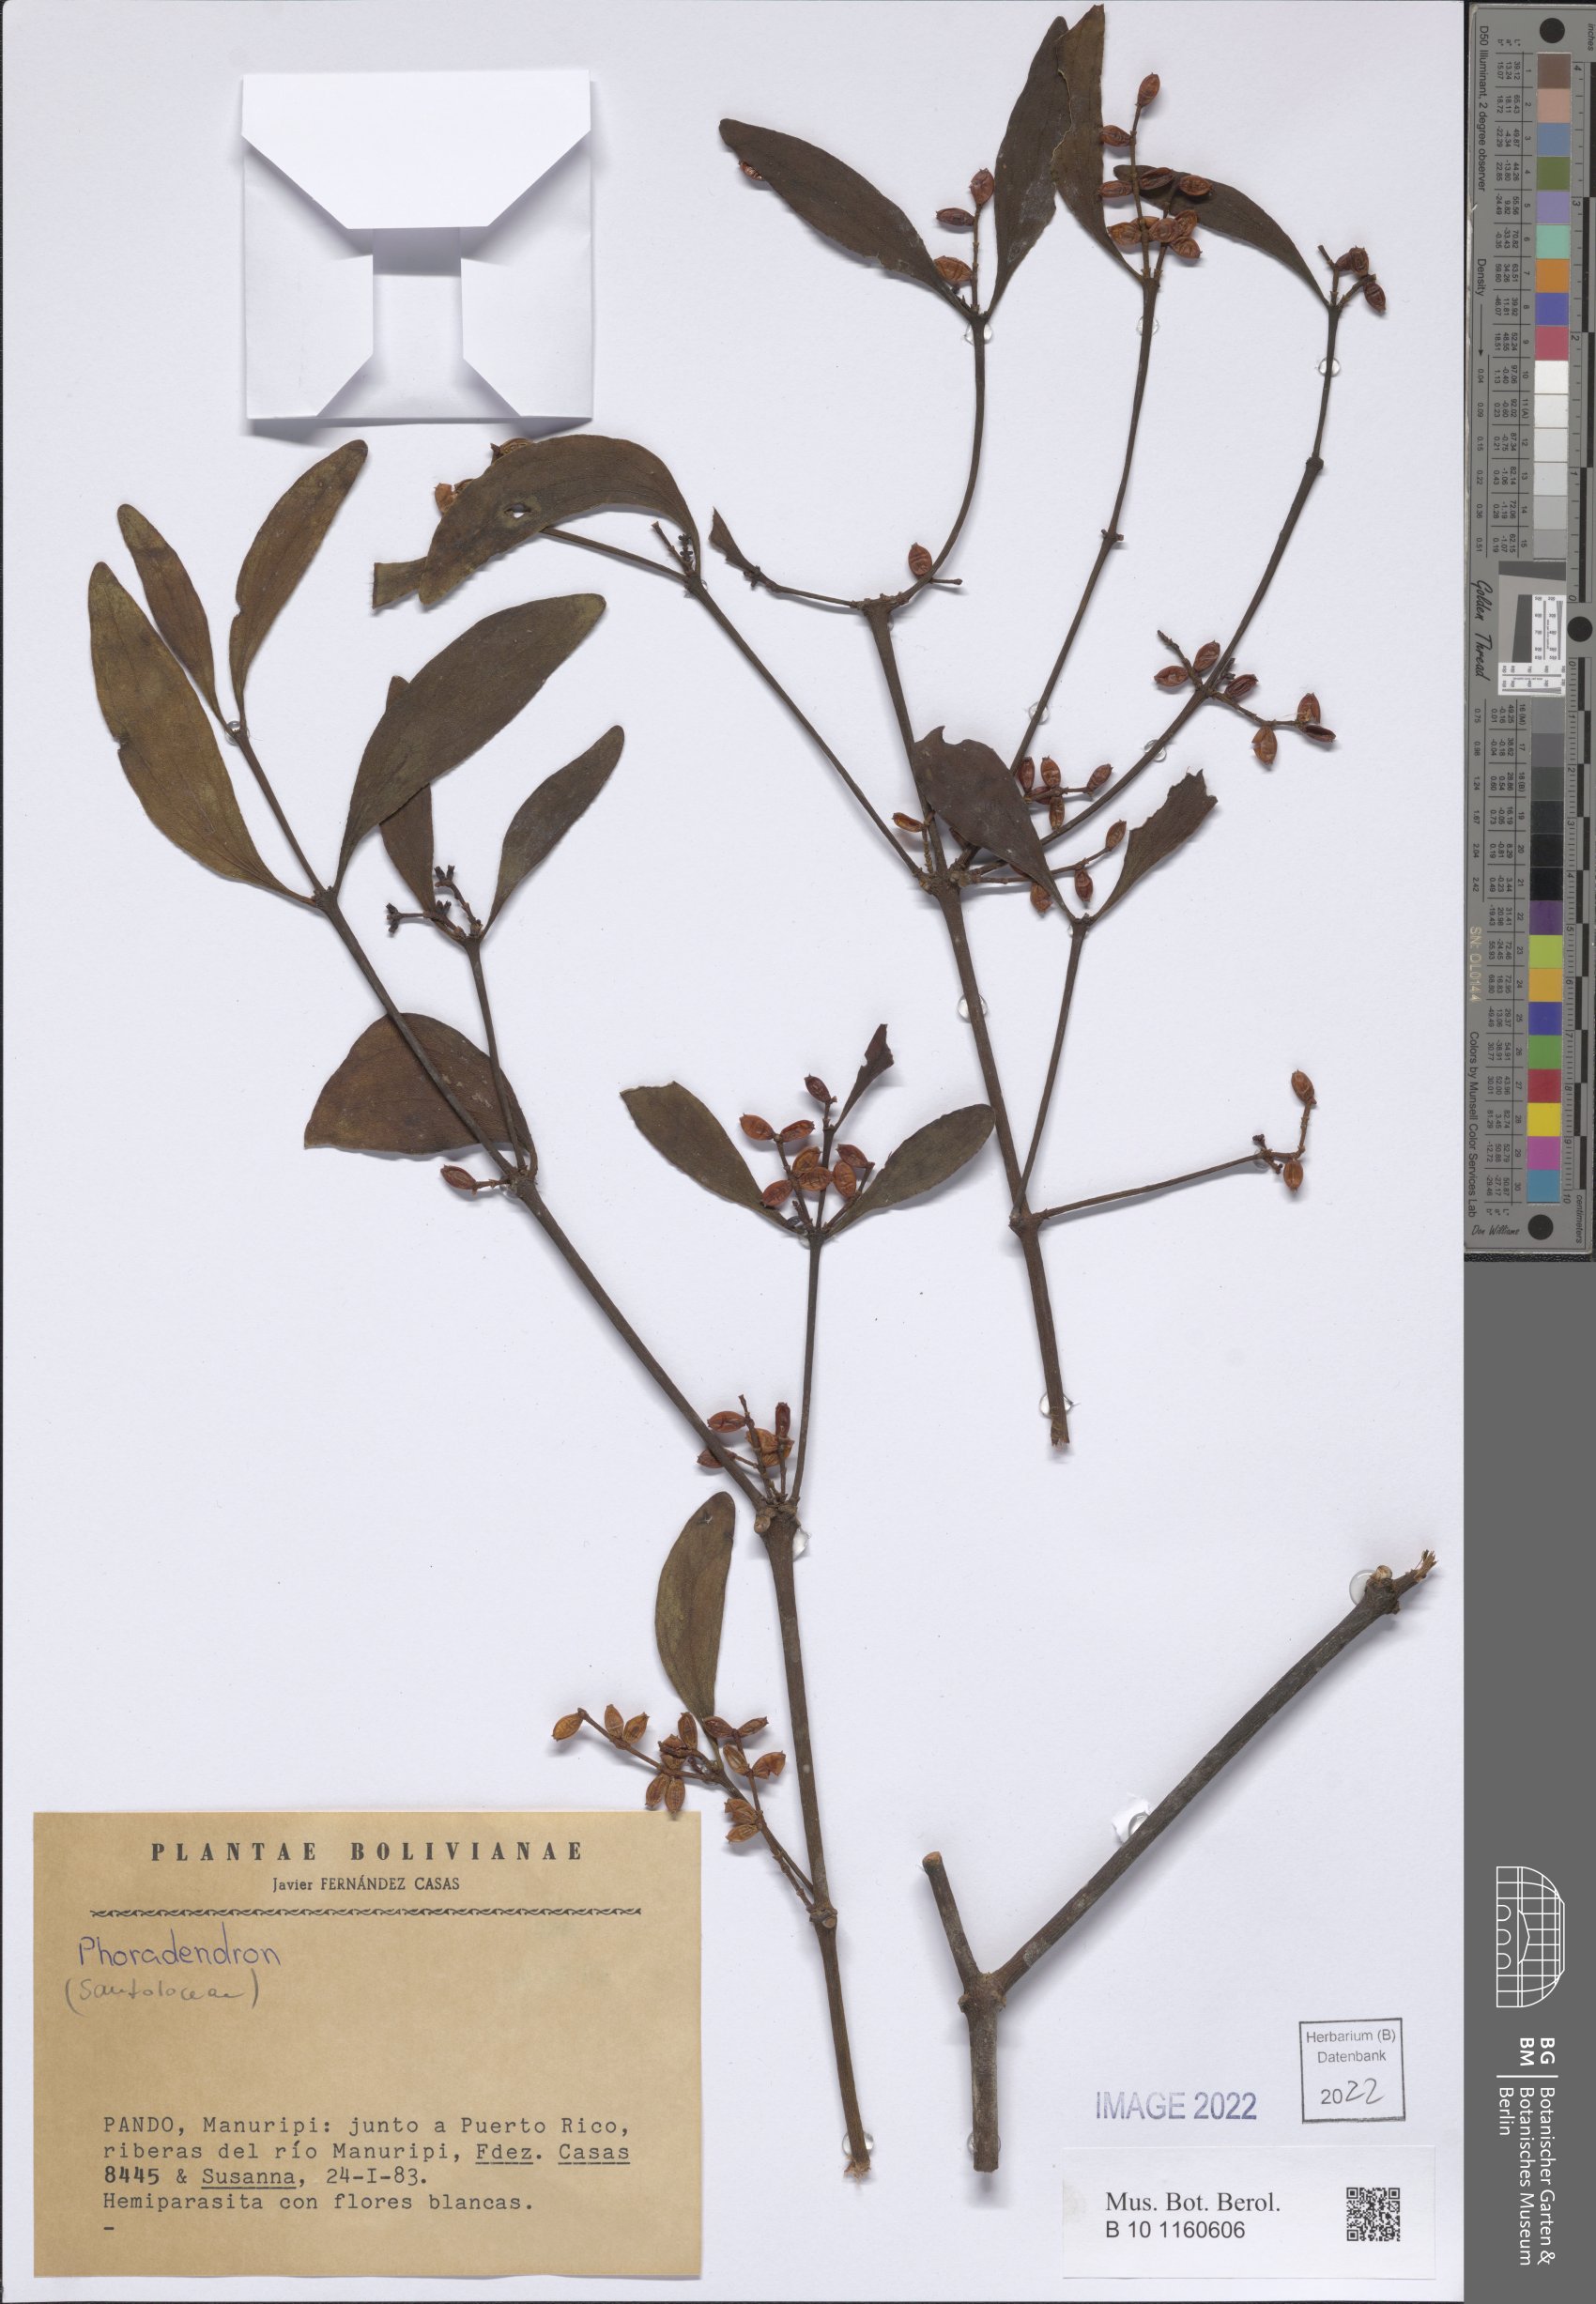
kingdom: Plantae
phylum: Tracheophyta
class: Magnoliopsida
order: Santalales
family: Viscaceae
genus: Phoradendron
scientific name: Phoradendron
